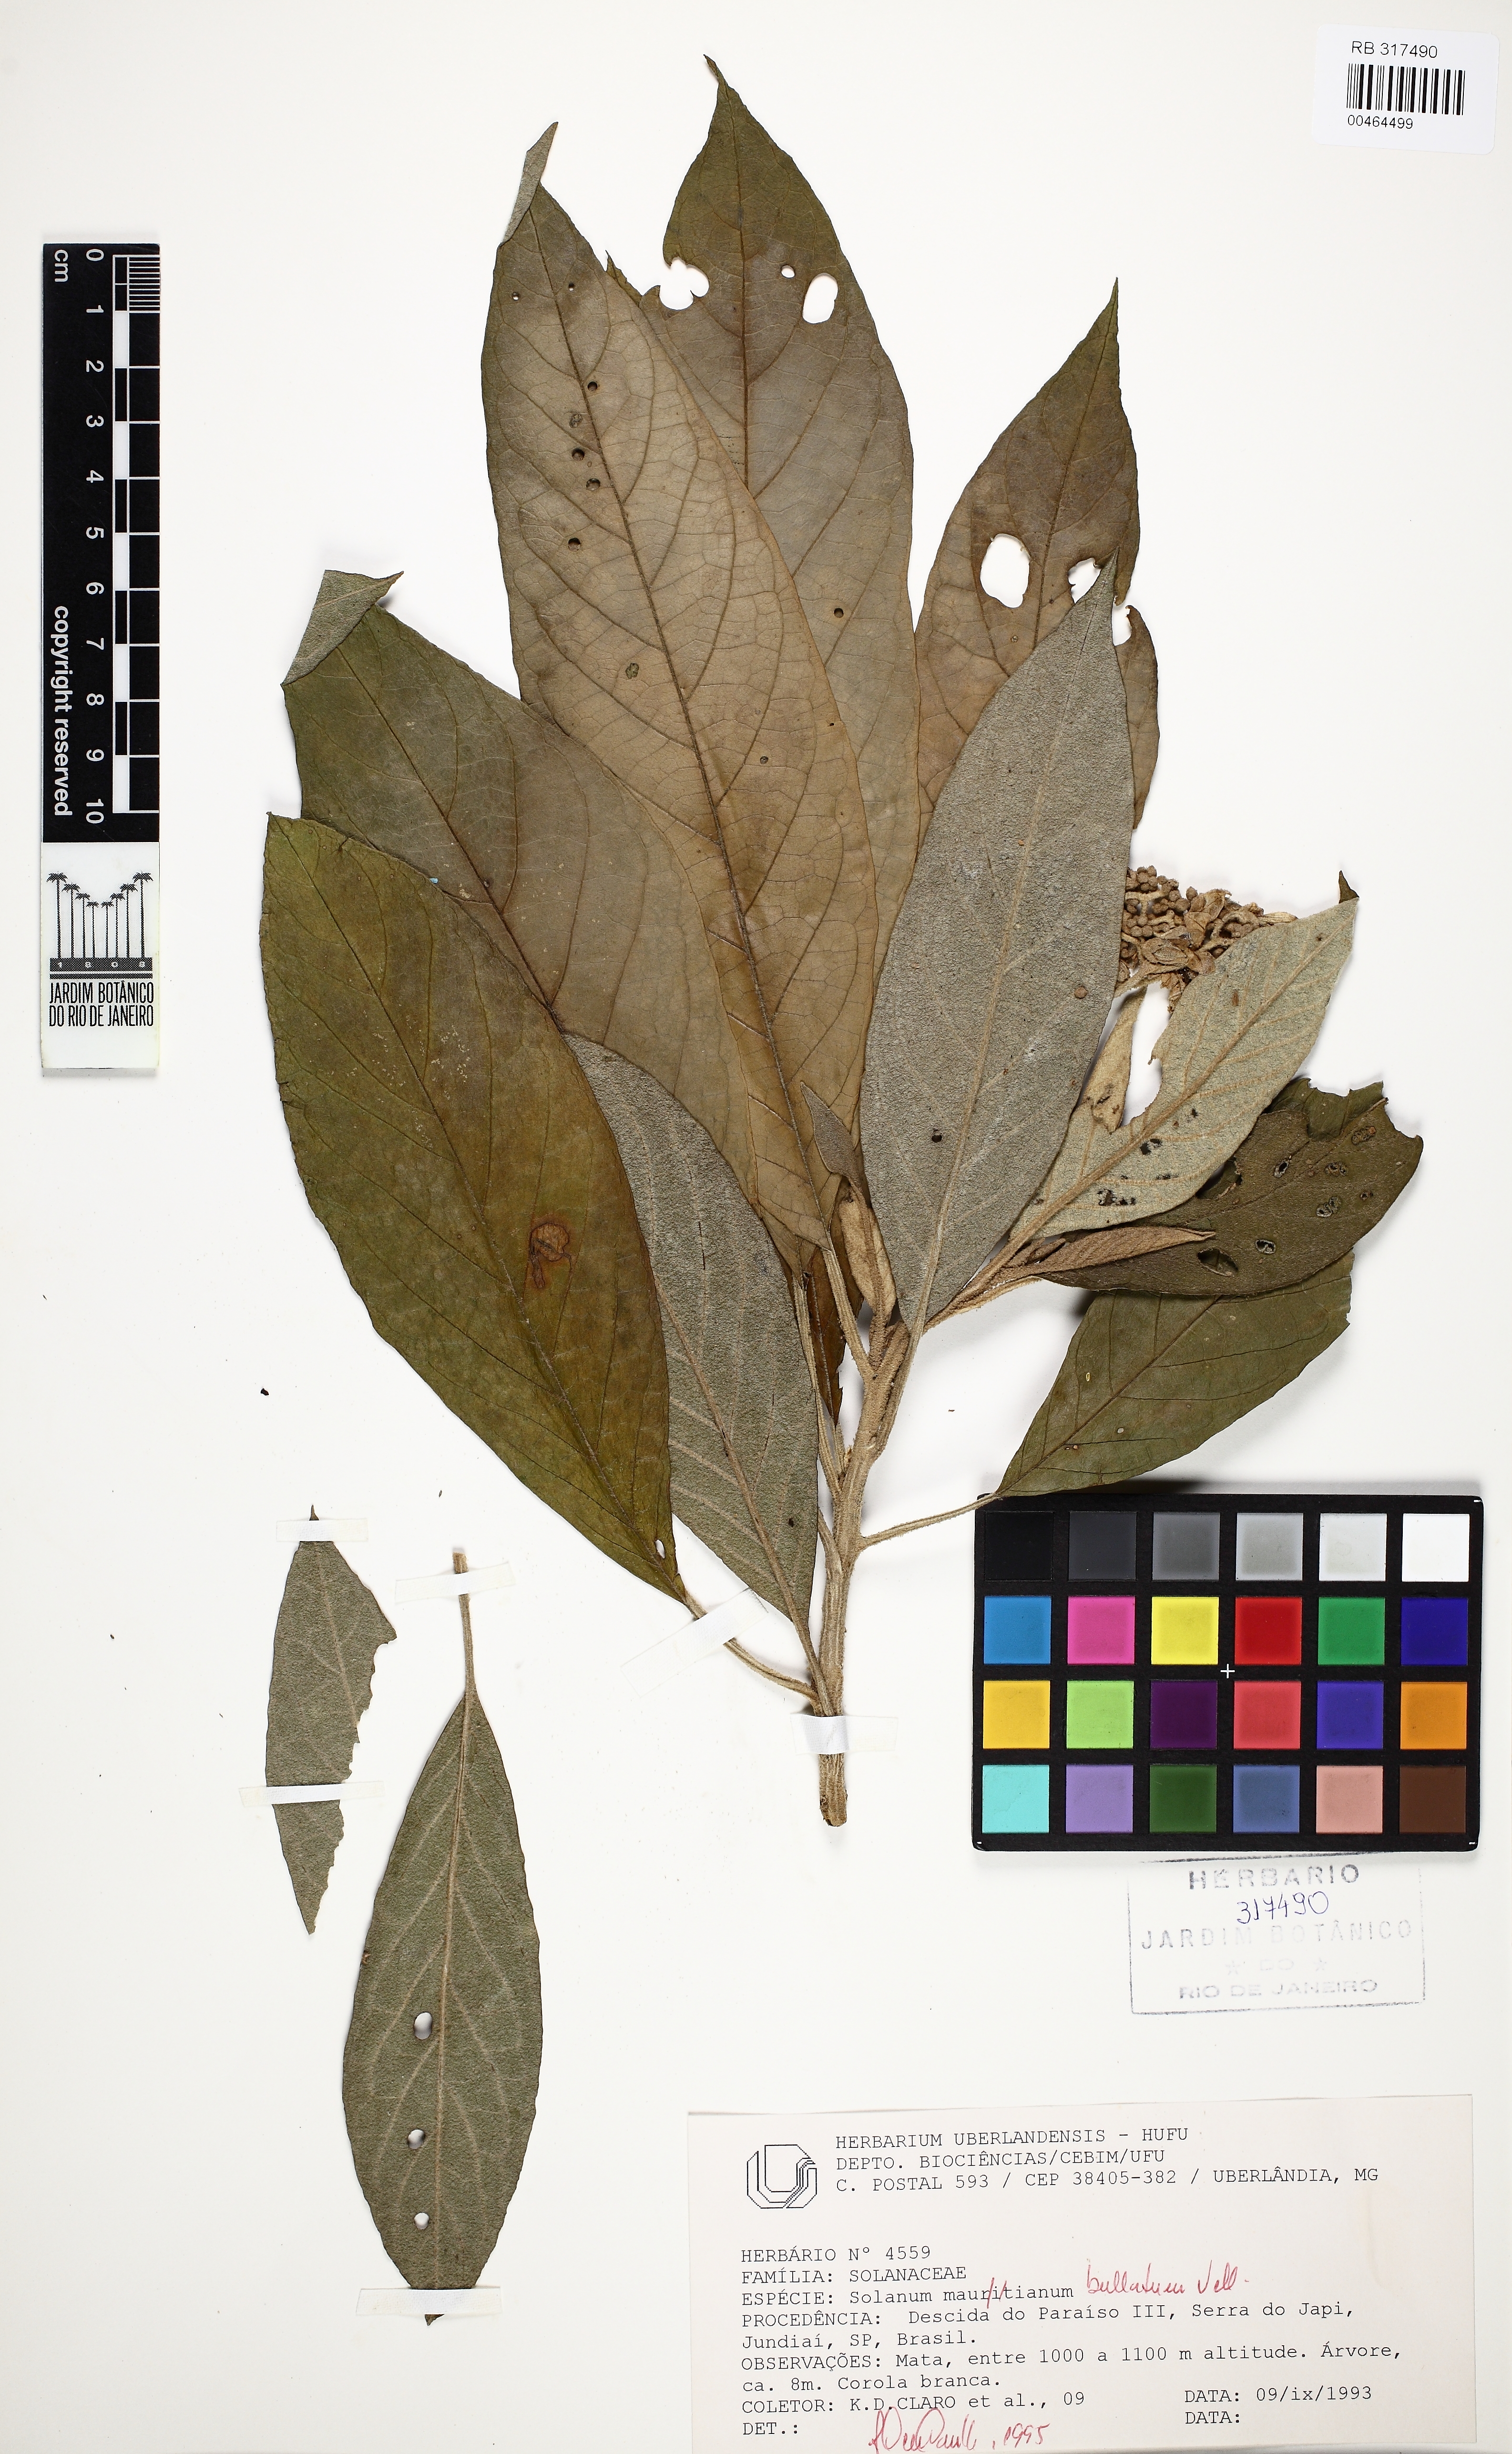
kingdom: Plantae
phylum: Tracheophyta
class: Magnoliopsida
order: Solanales
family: Solanaceae
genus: Solanum
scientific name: Solanum bullatum
